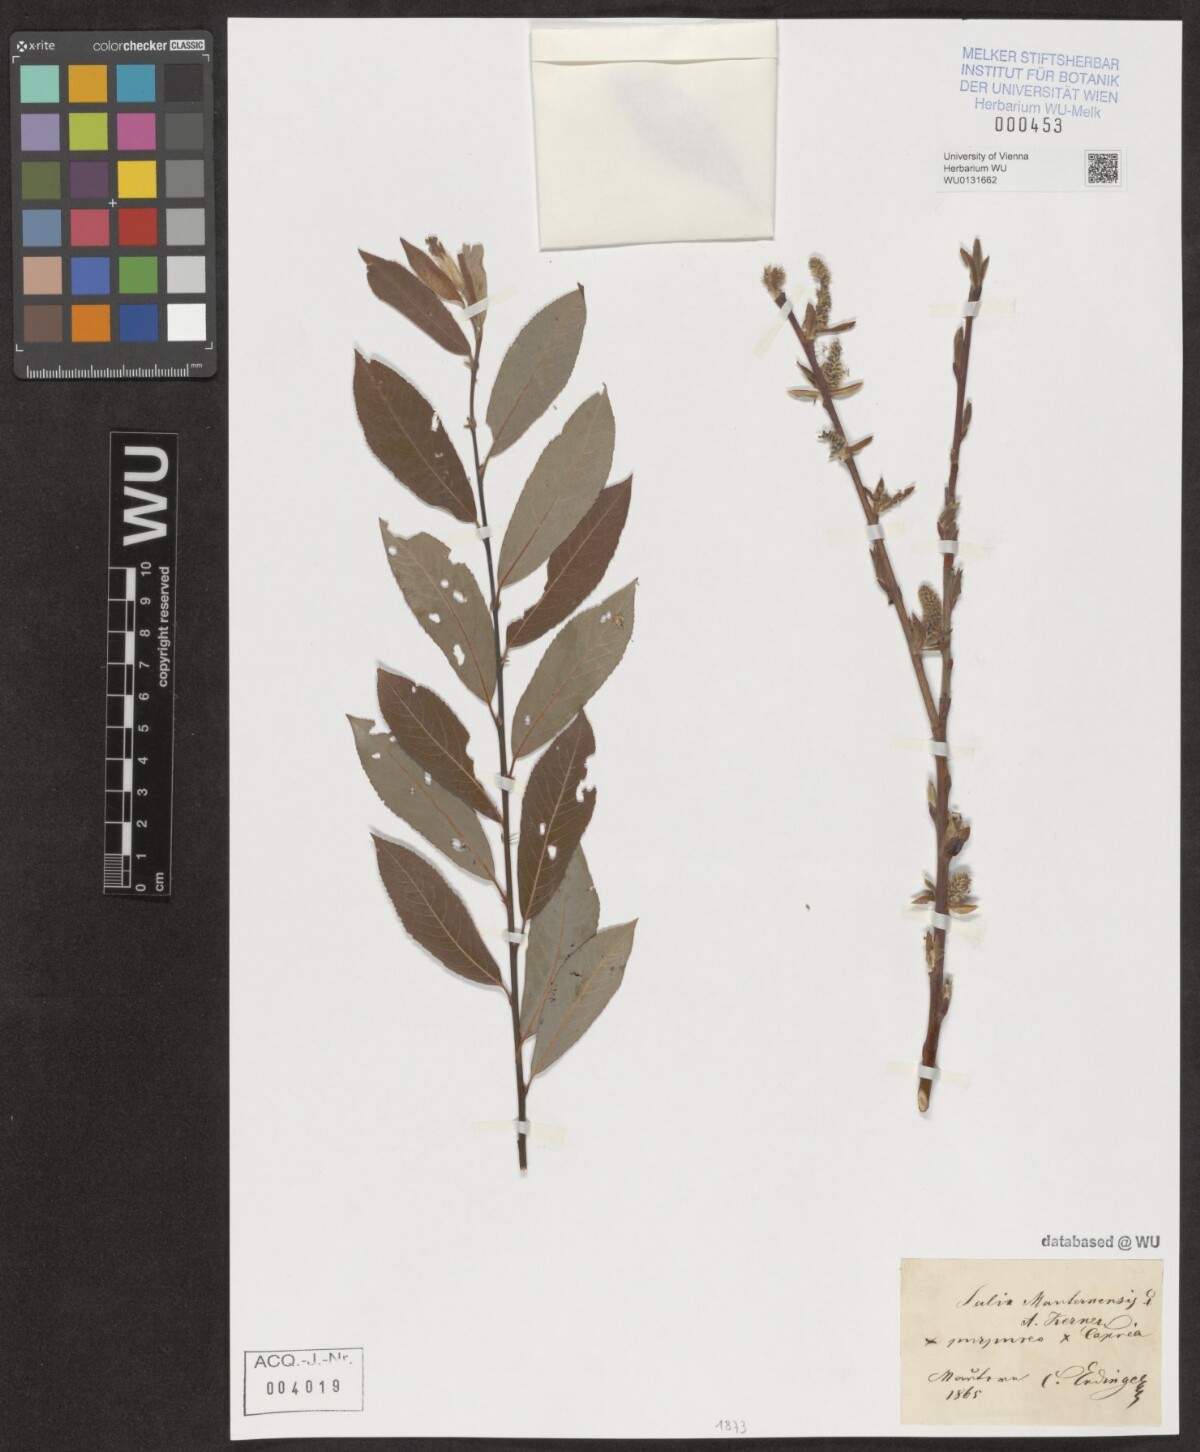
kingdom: Plantae
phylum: Tracheophyta
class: Magnoliopsida
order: Malpighiales
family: Salicaceae
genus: Salix
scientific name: Salix wimmeriana
